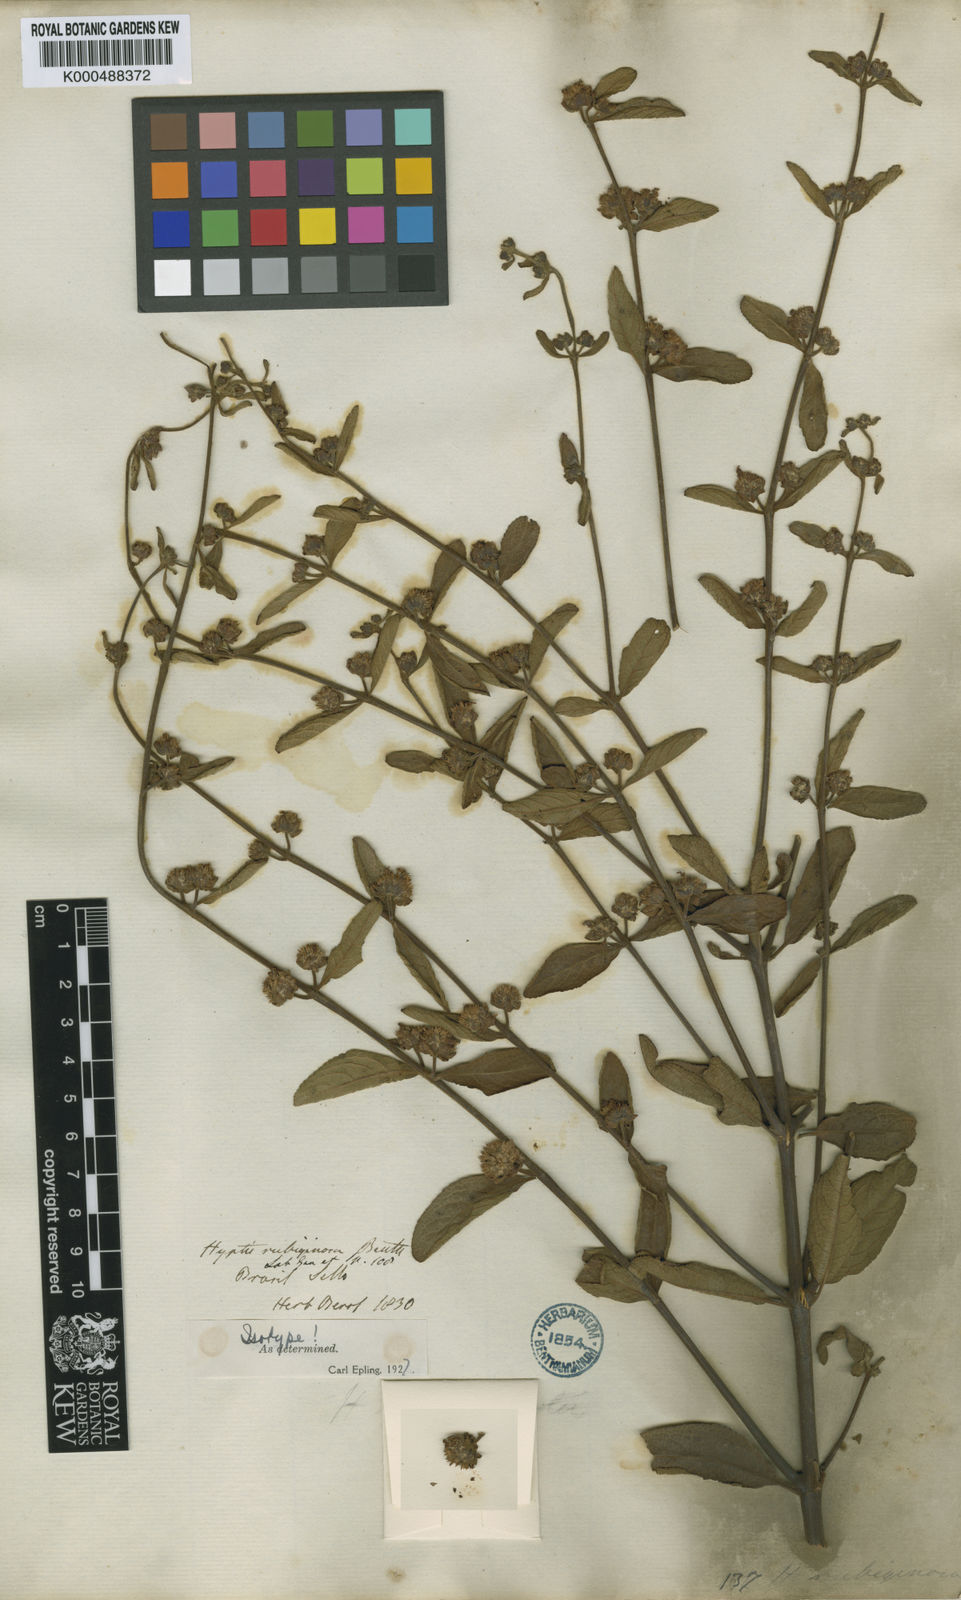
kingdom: Plantae
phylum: Tracheophyta
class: Magnoliopsida
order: Lamiales
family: Lamiaceae
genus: Hyptis
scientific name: Hyptis rubiginosa
